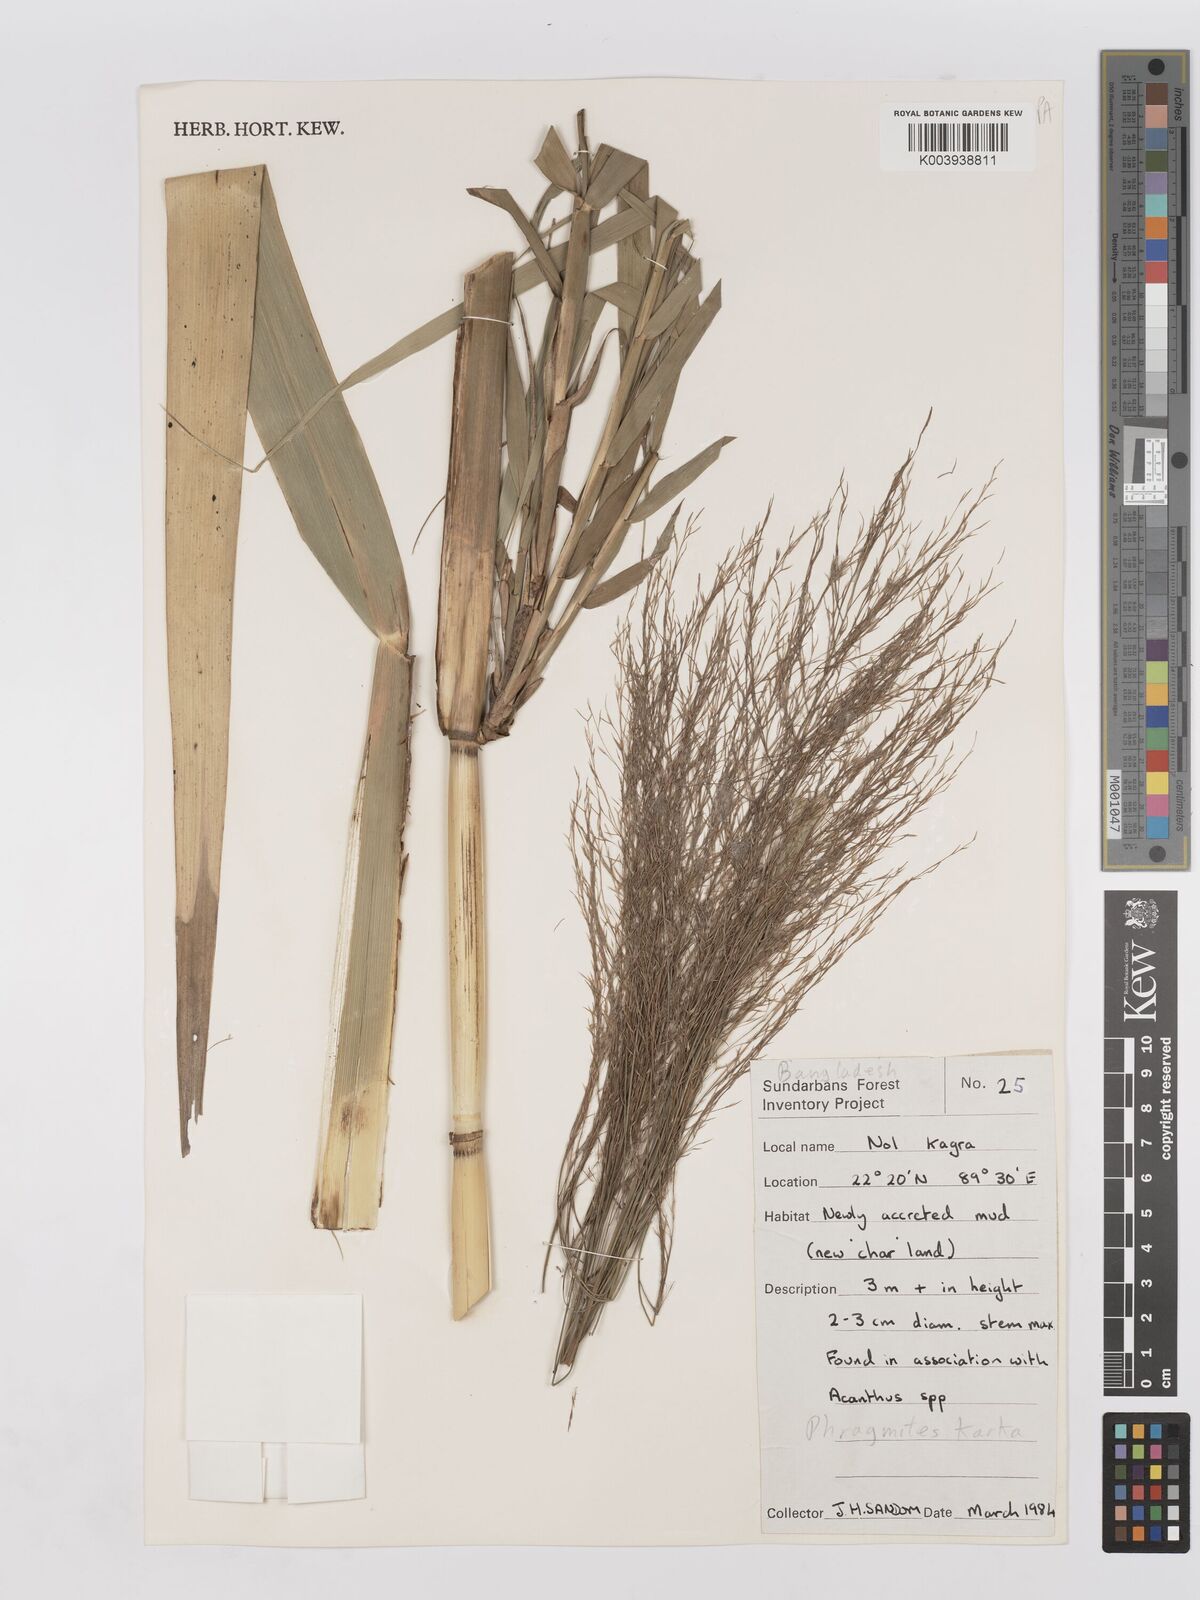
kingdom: Plantae
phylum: Tracheophyta
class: Liliopsida
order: Poales
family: Poaceae
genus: Phragmites
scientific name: Phragmites karka
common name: Tropical reed
